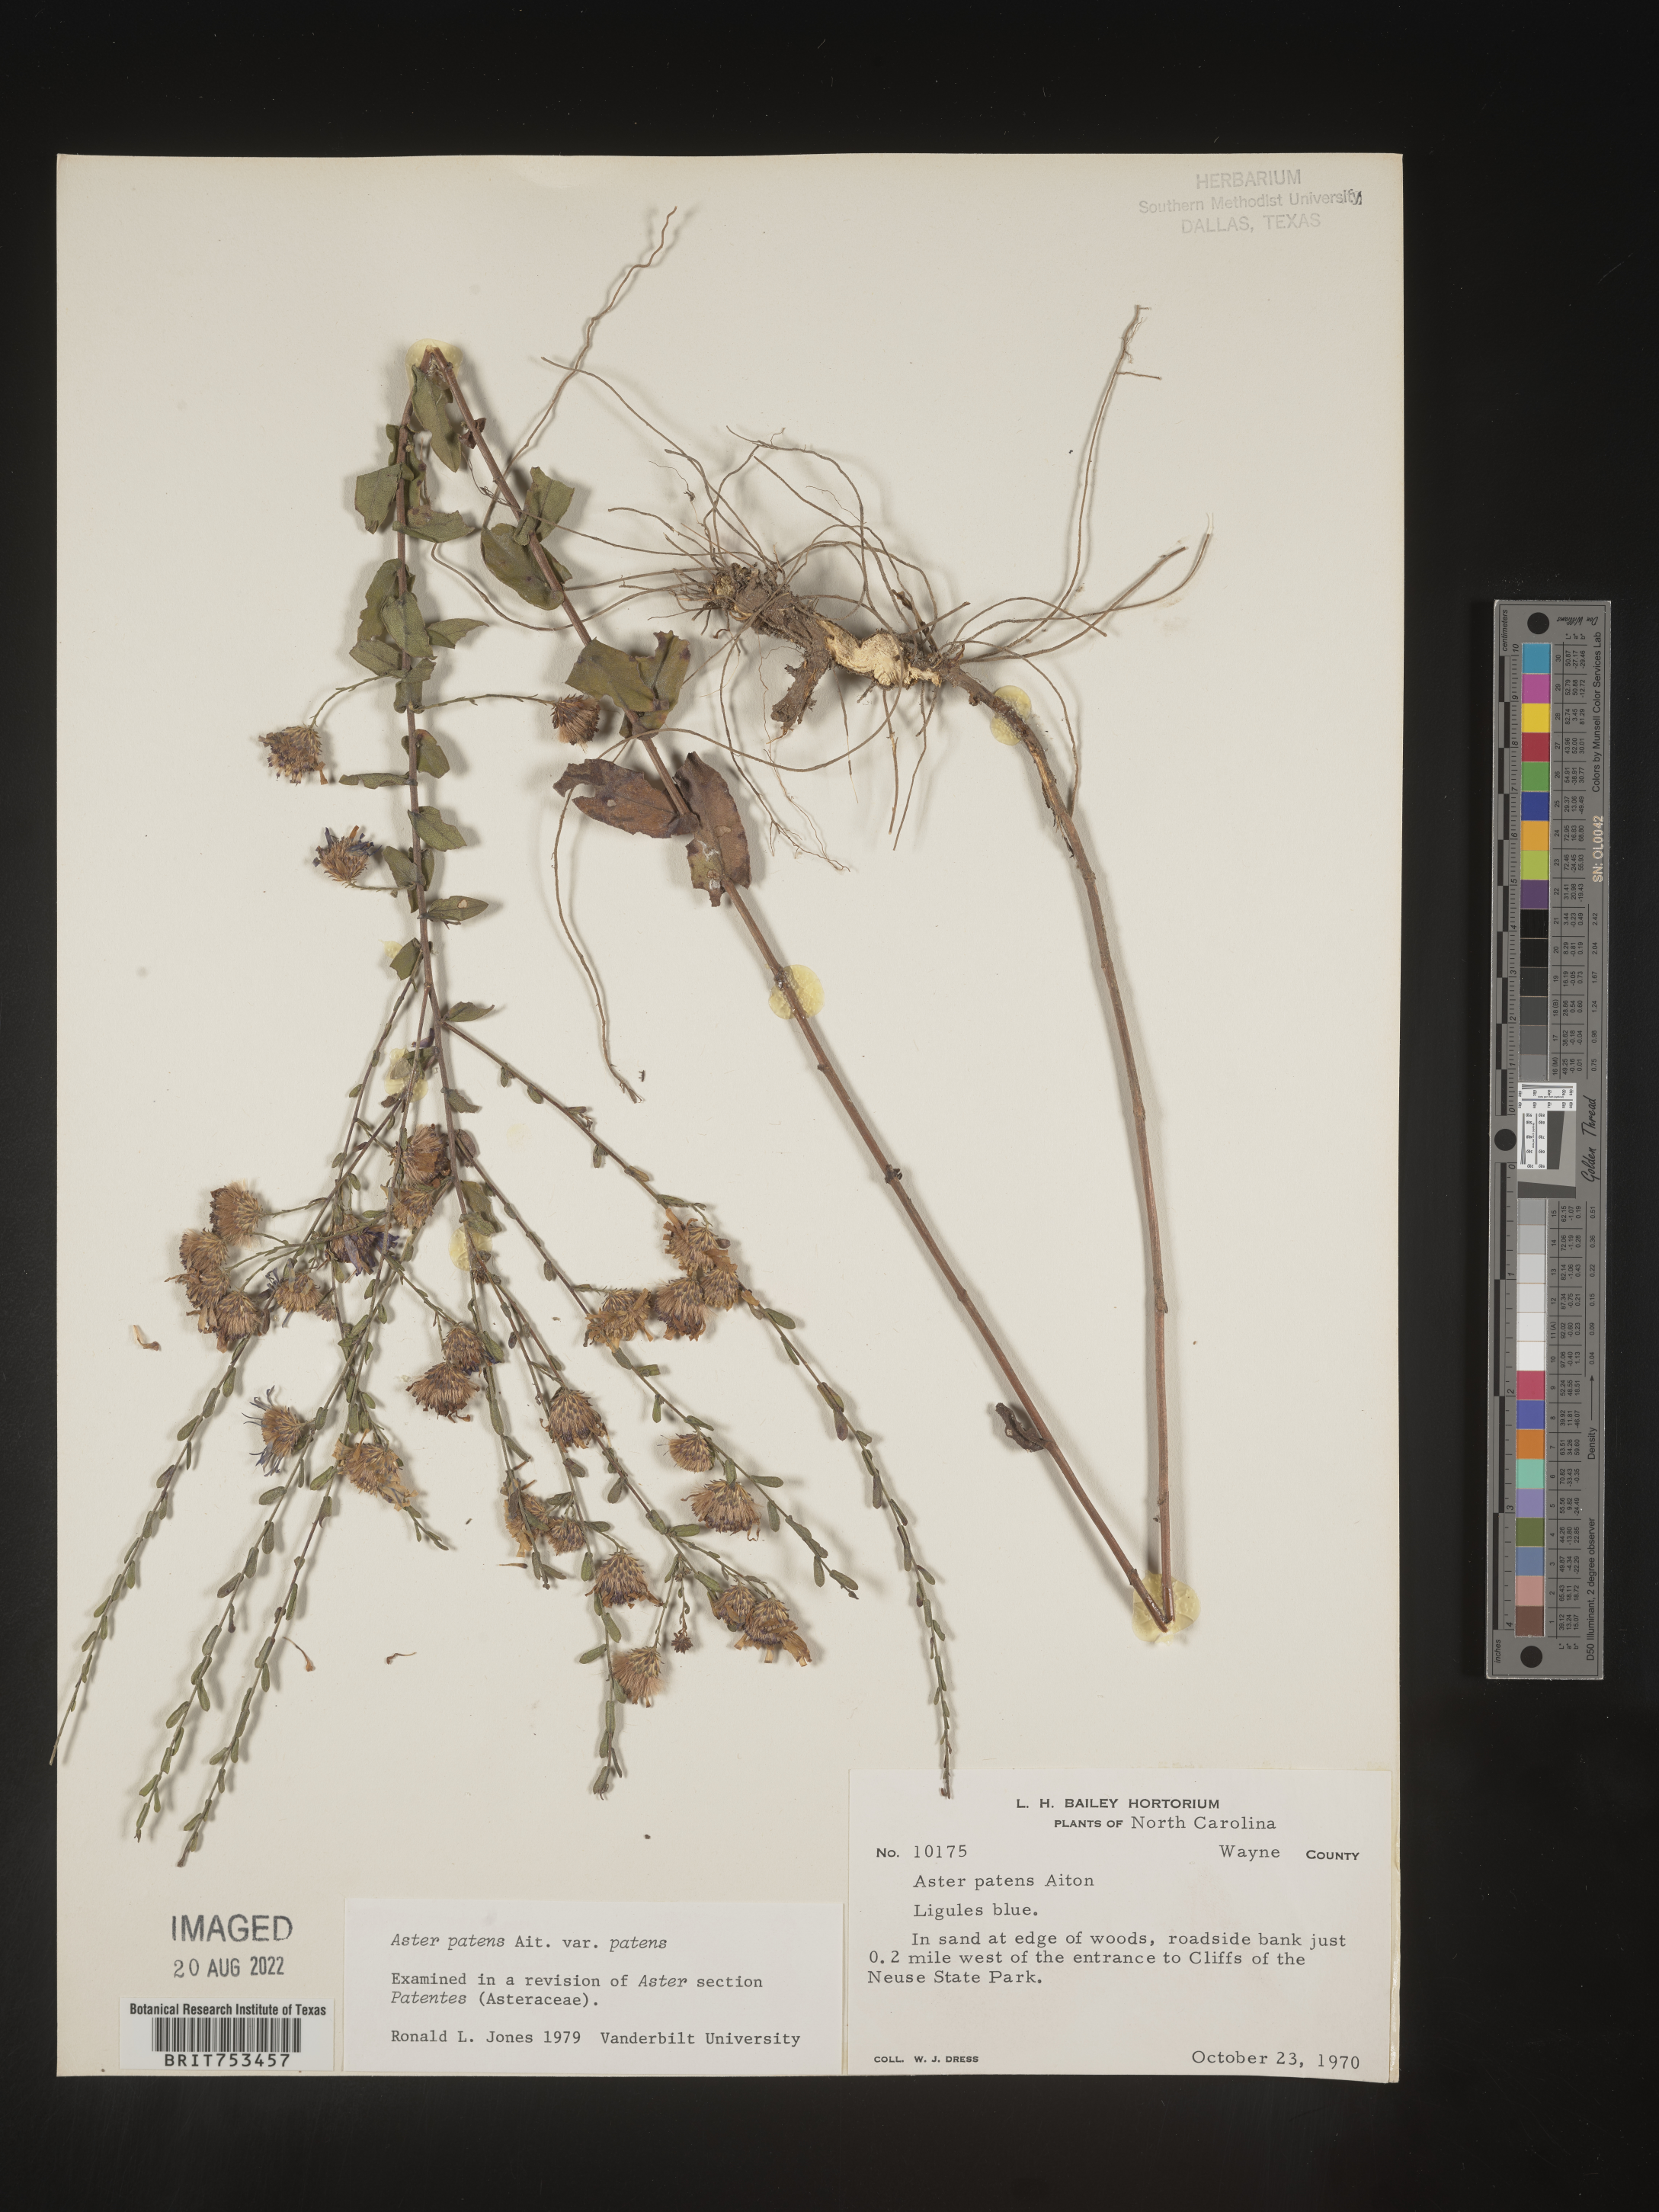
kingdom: Plantae
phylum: Tracheophyta
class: Magnoliopsida
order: Asterales
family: Asteraceae
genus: Symphyotrichum
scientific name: Symphyotrichum patens
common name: Late purple aster
